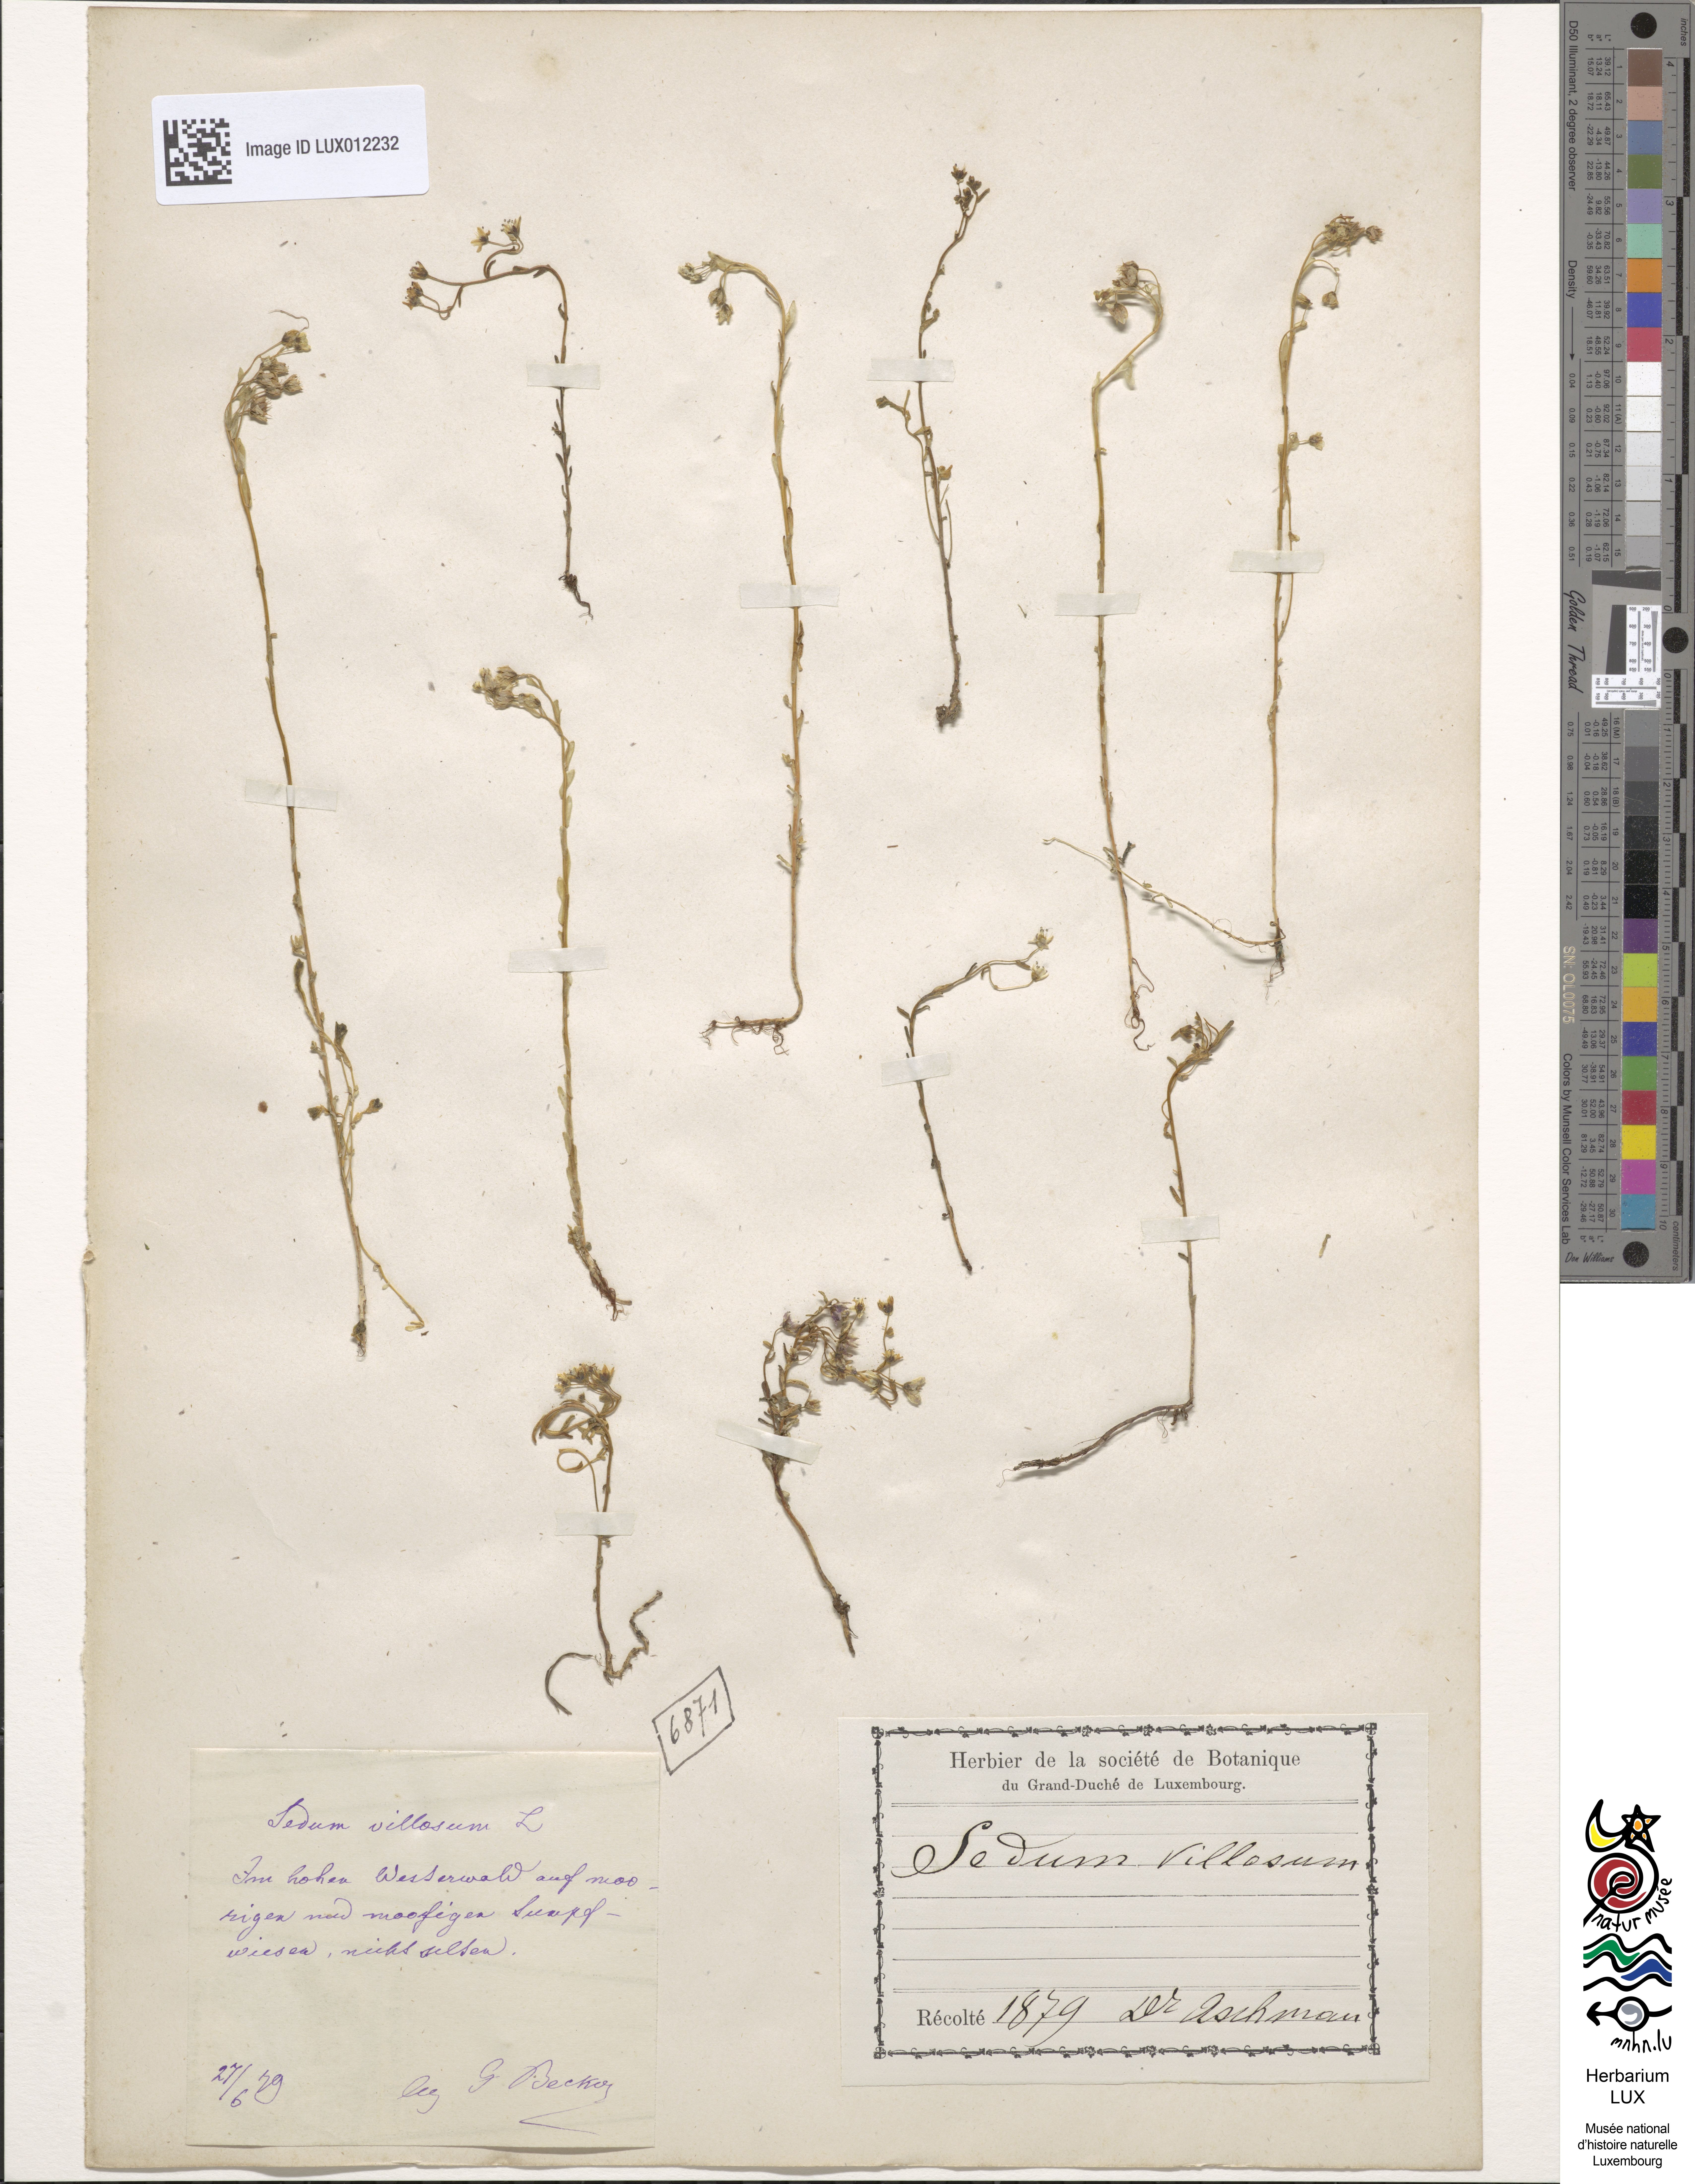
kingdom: Plantae
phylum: Tracheophyta
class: Magnoliopsida
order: Saxifragales
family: Crassulaceae
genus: Sedum
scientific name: Sedum villosum
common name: Hairy stonecrop
